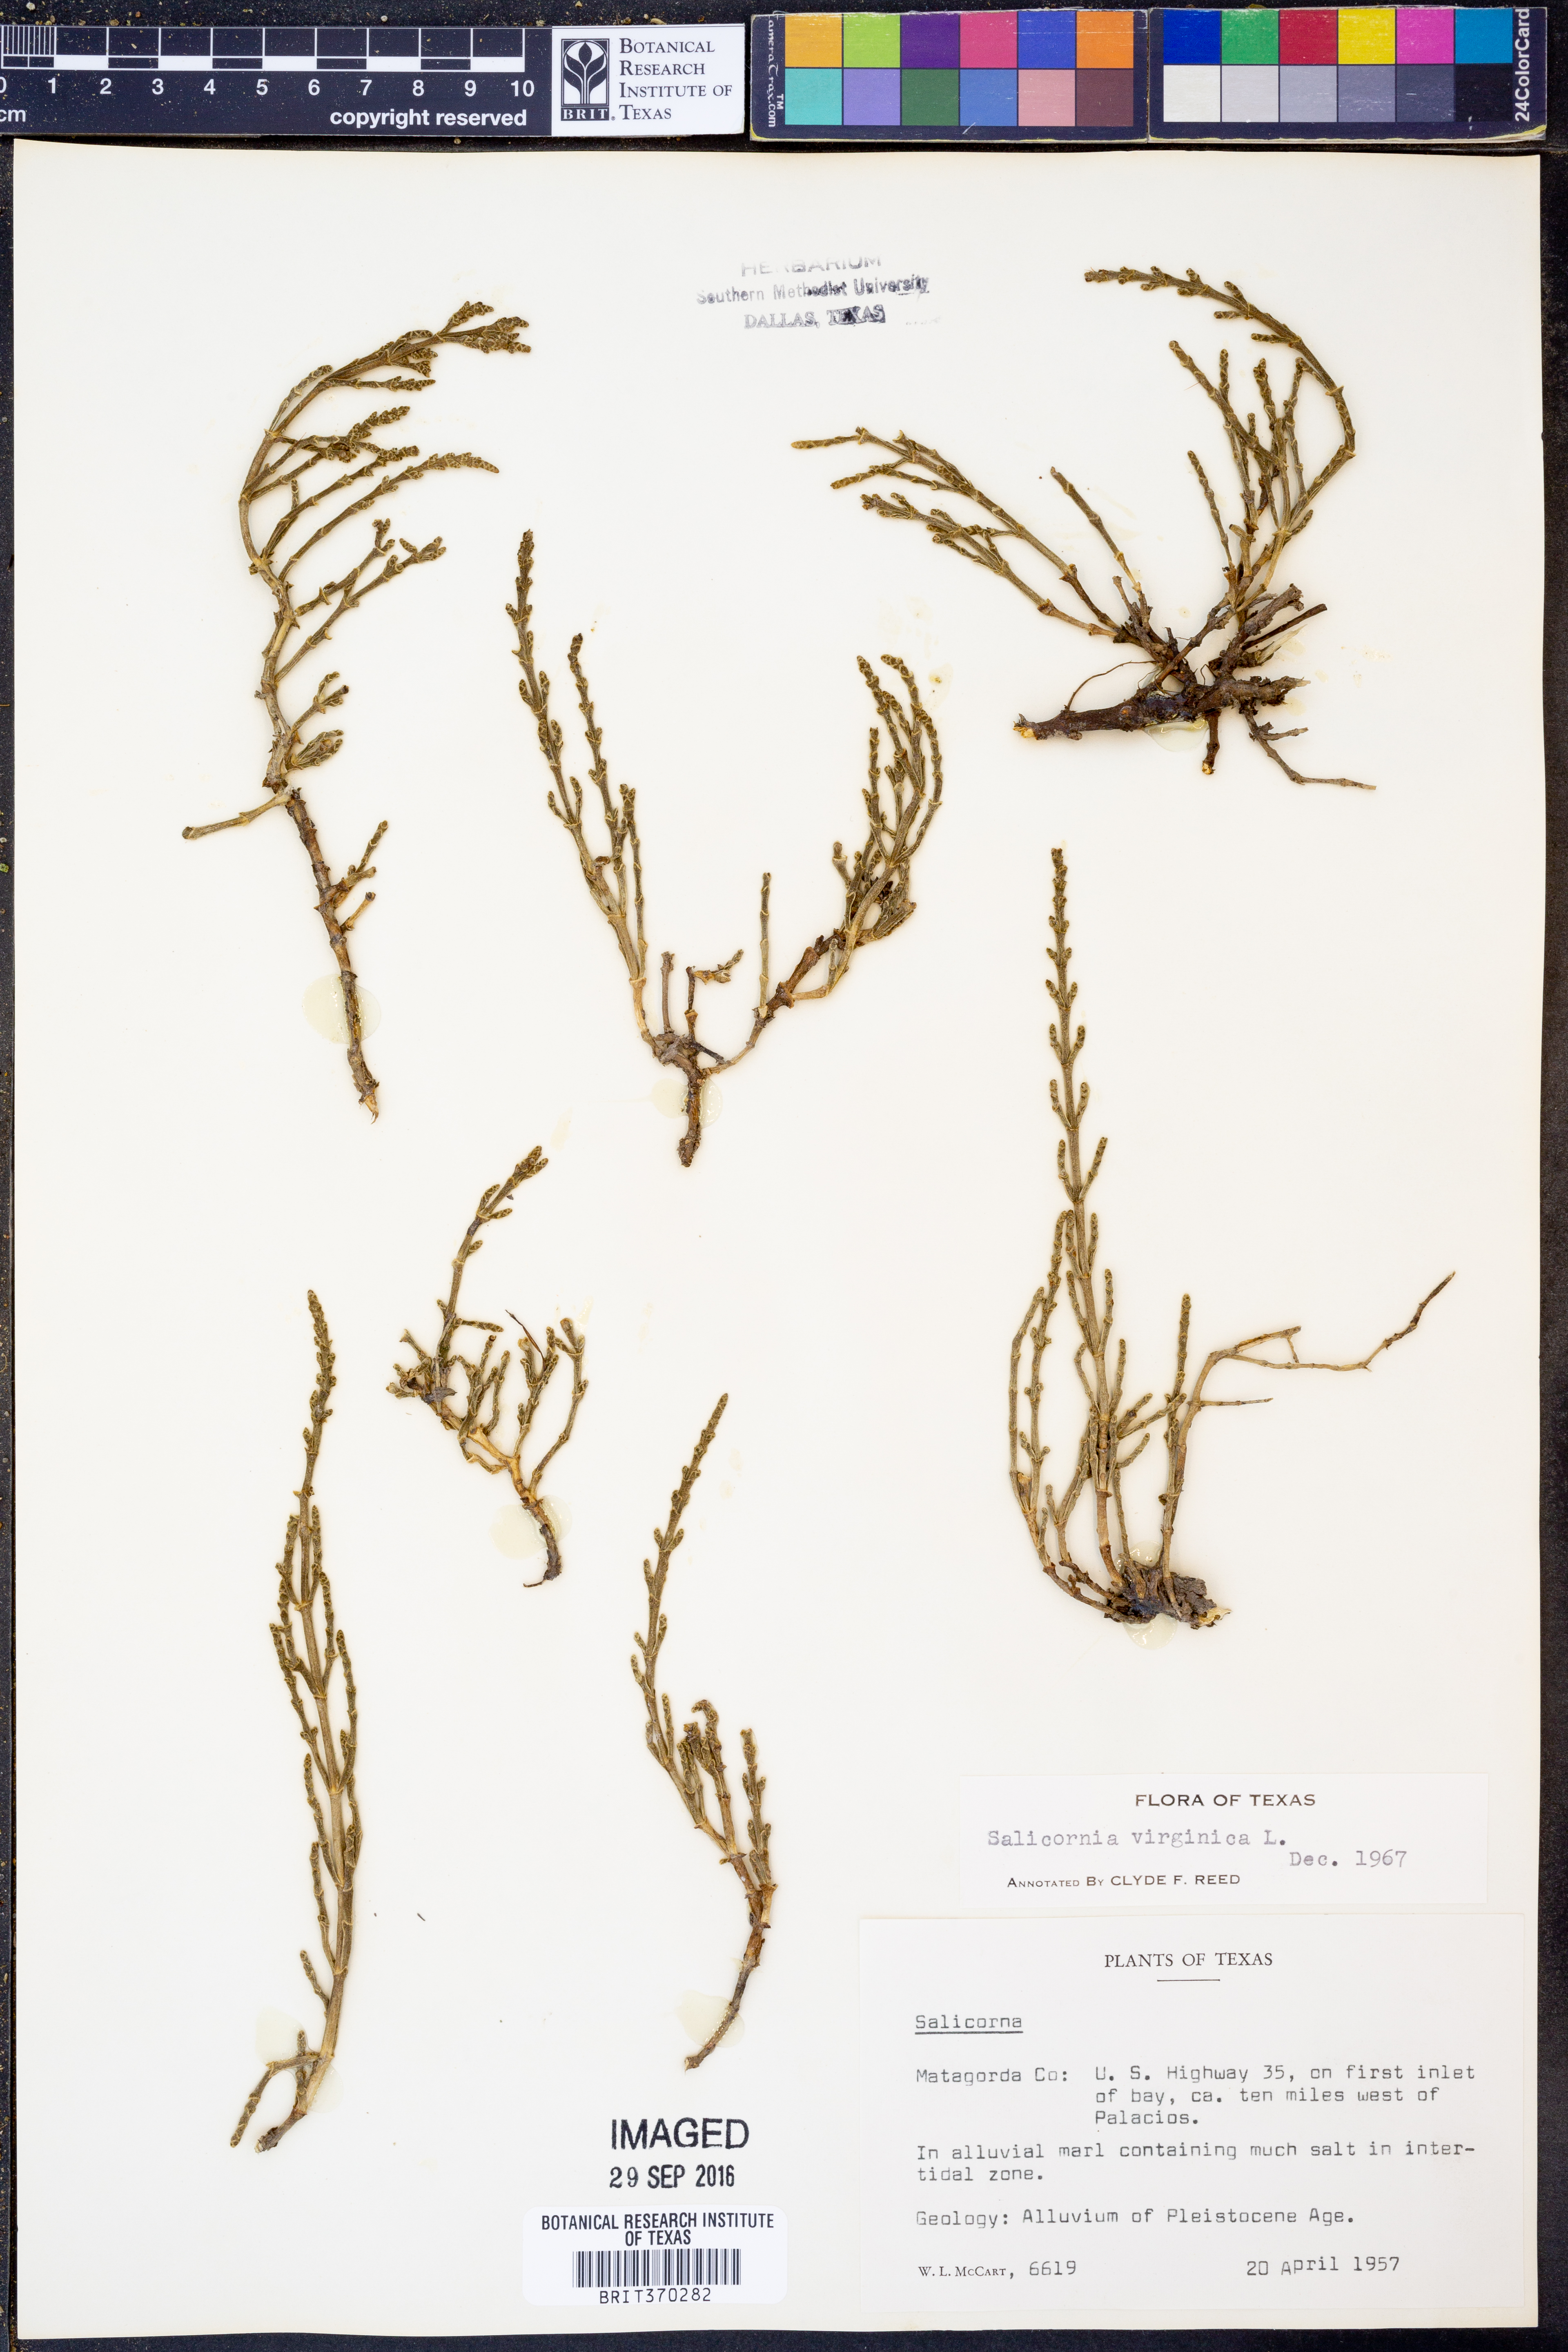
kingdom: Plantae
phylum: Tracheophyta
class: Magnoliopsida
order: Caryophyllales
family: Amaranthaceae
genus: Salicornia
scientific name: Salicornia virginica
